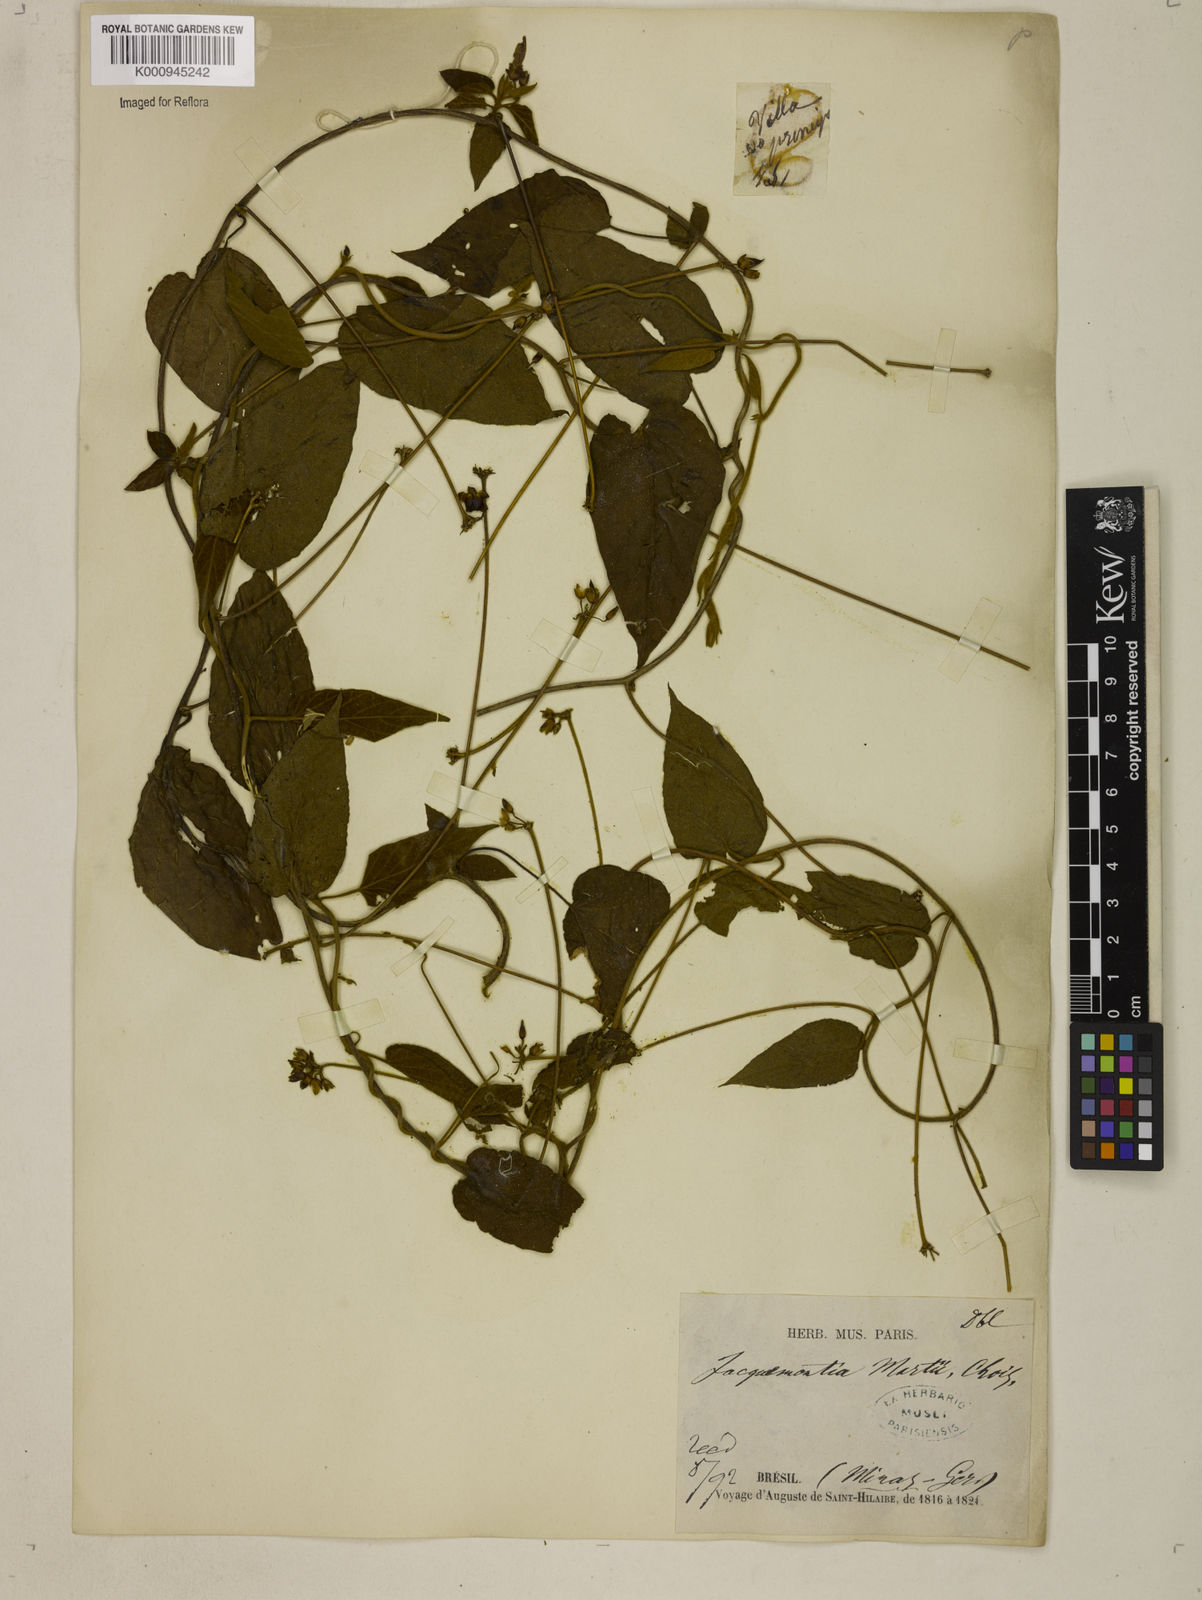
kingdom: Plantae
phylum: Tracheophyta
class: Magnoliopsida
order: Solanales
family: Convolvulaceae
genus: Jacquemontia
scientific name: Jacquemontia martii
